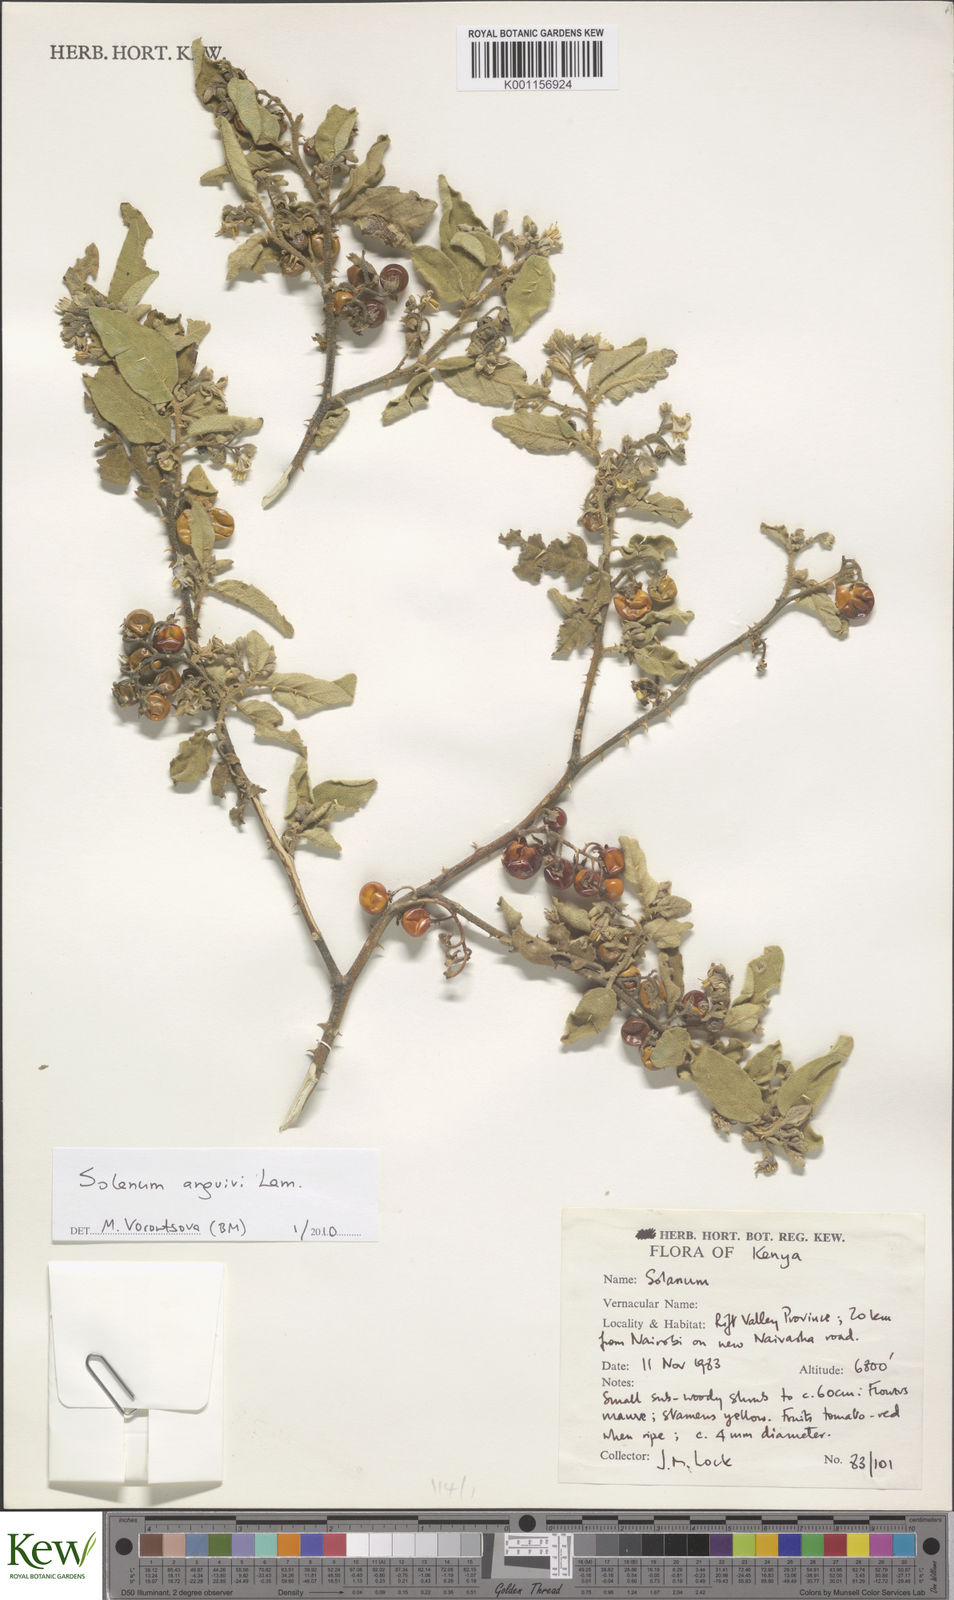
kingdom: Plantae
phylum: Tracheophyta
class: Magnoliopsida
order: Solanales
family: Solanaceae
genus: Solanum
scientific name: Solanum anguivi
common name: Forest bitterberry
